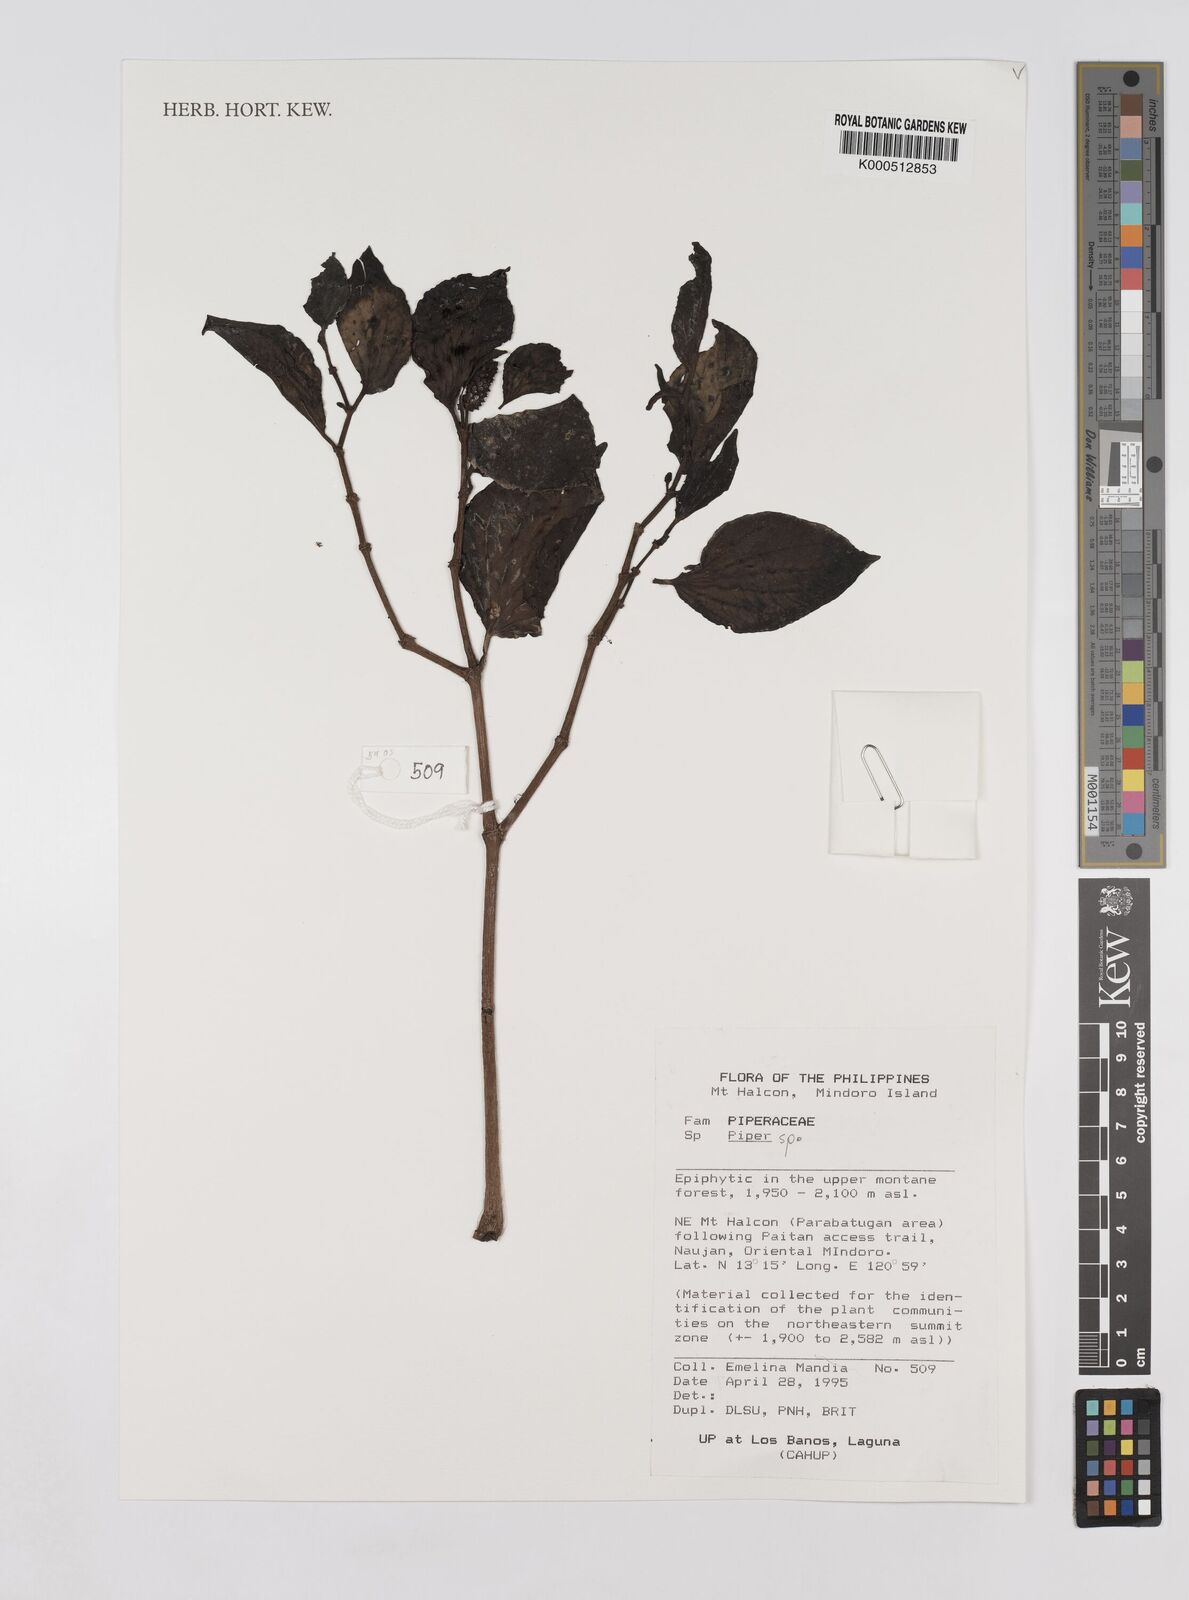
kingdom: Plantae
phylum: Tracheophyta
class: Magnoliopsida
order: Piperales
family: Piperaceae
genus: Piper
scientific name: Piper
